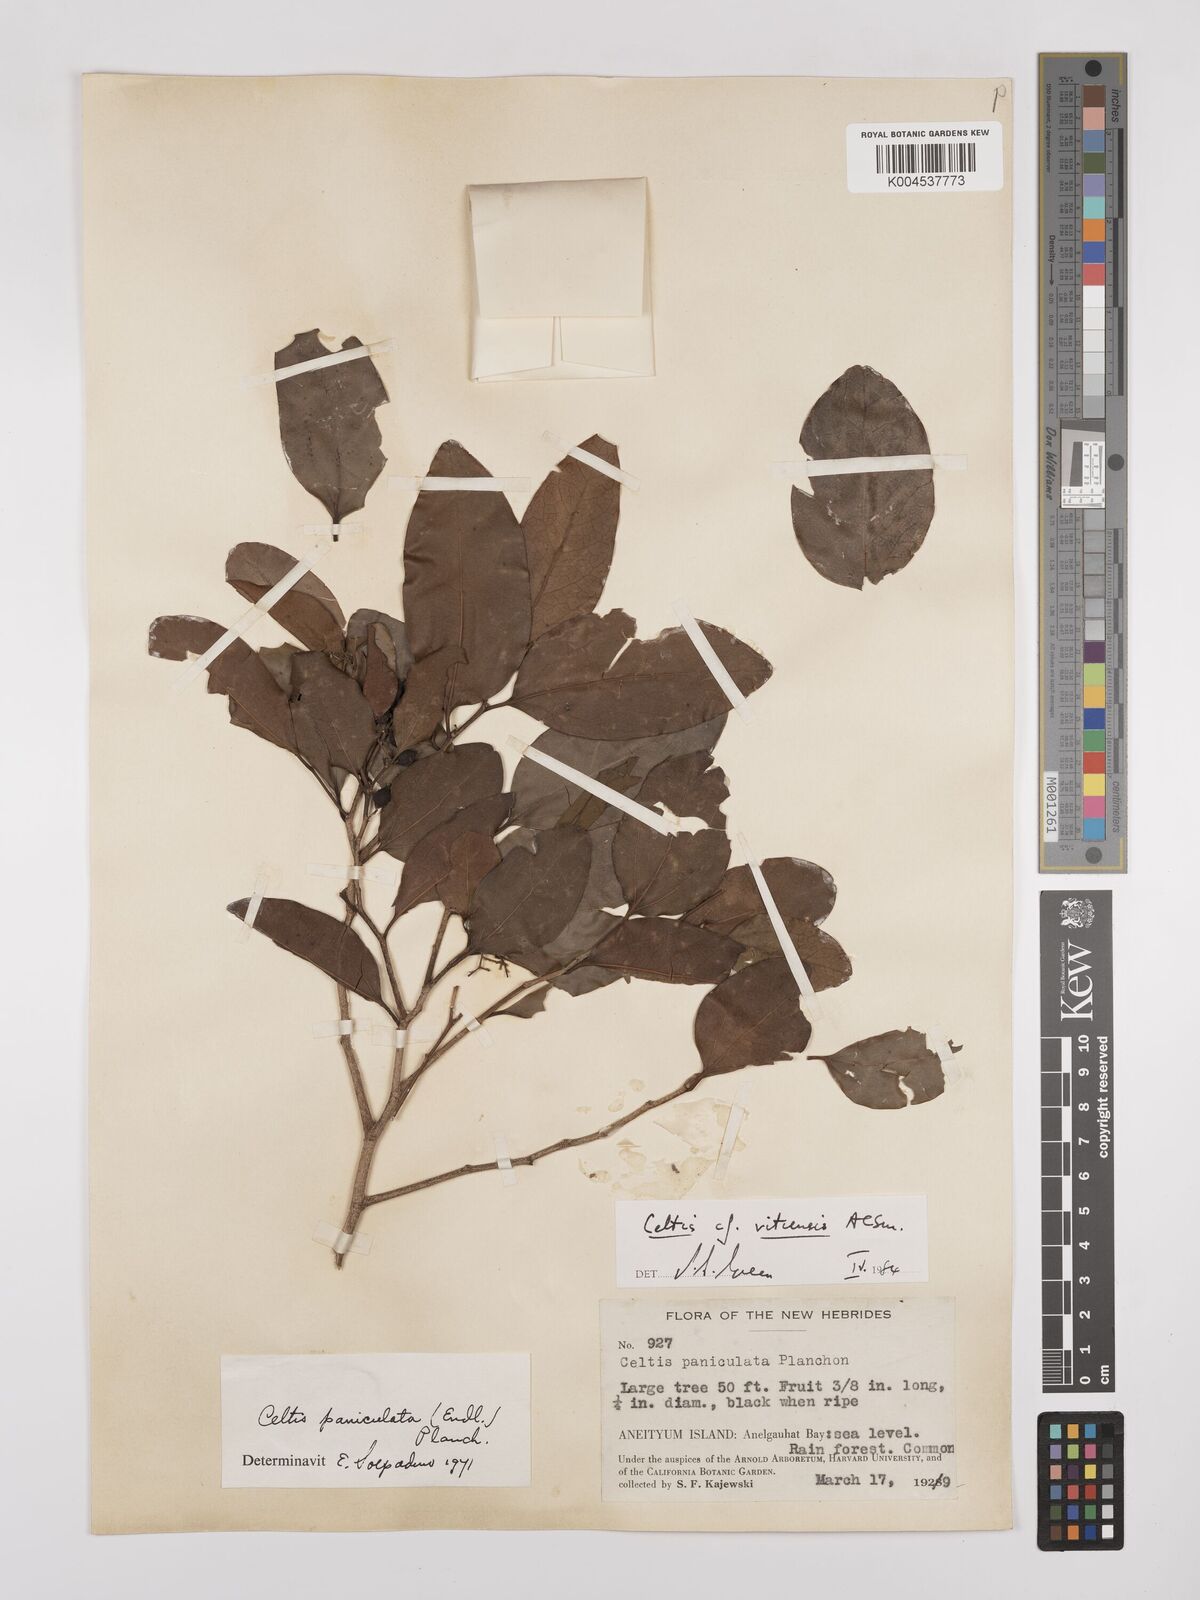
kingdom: Plantae
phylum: Tracheophyta
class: Magnoliopsida
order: Rosales
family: Cannabaceae
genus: Celtis
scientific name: Celtis vitiensis
